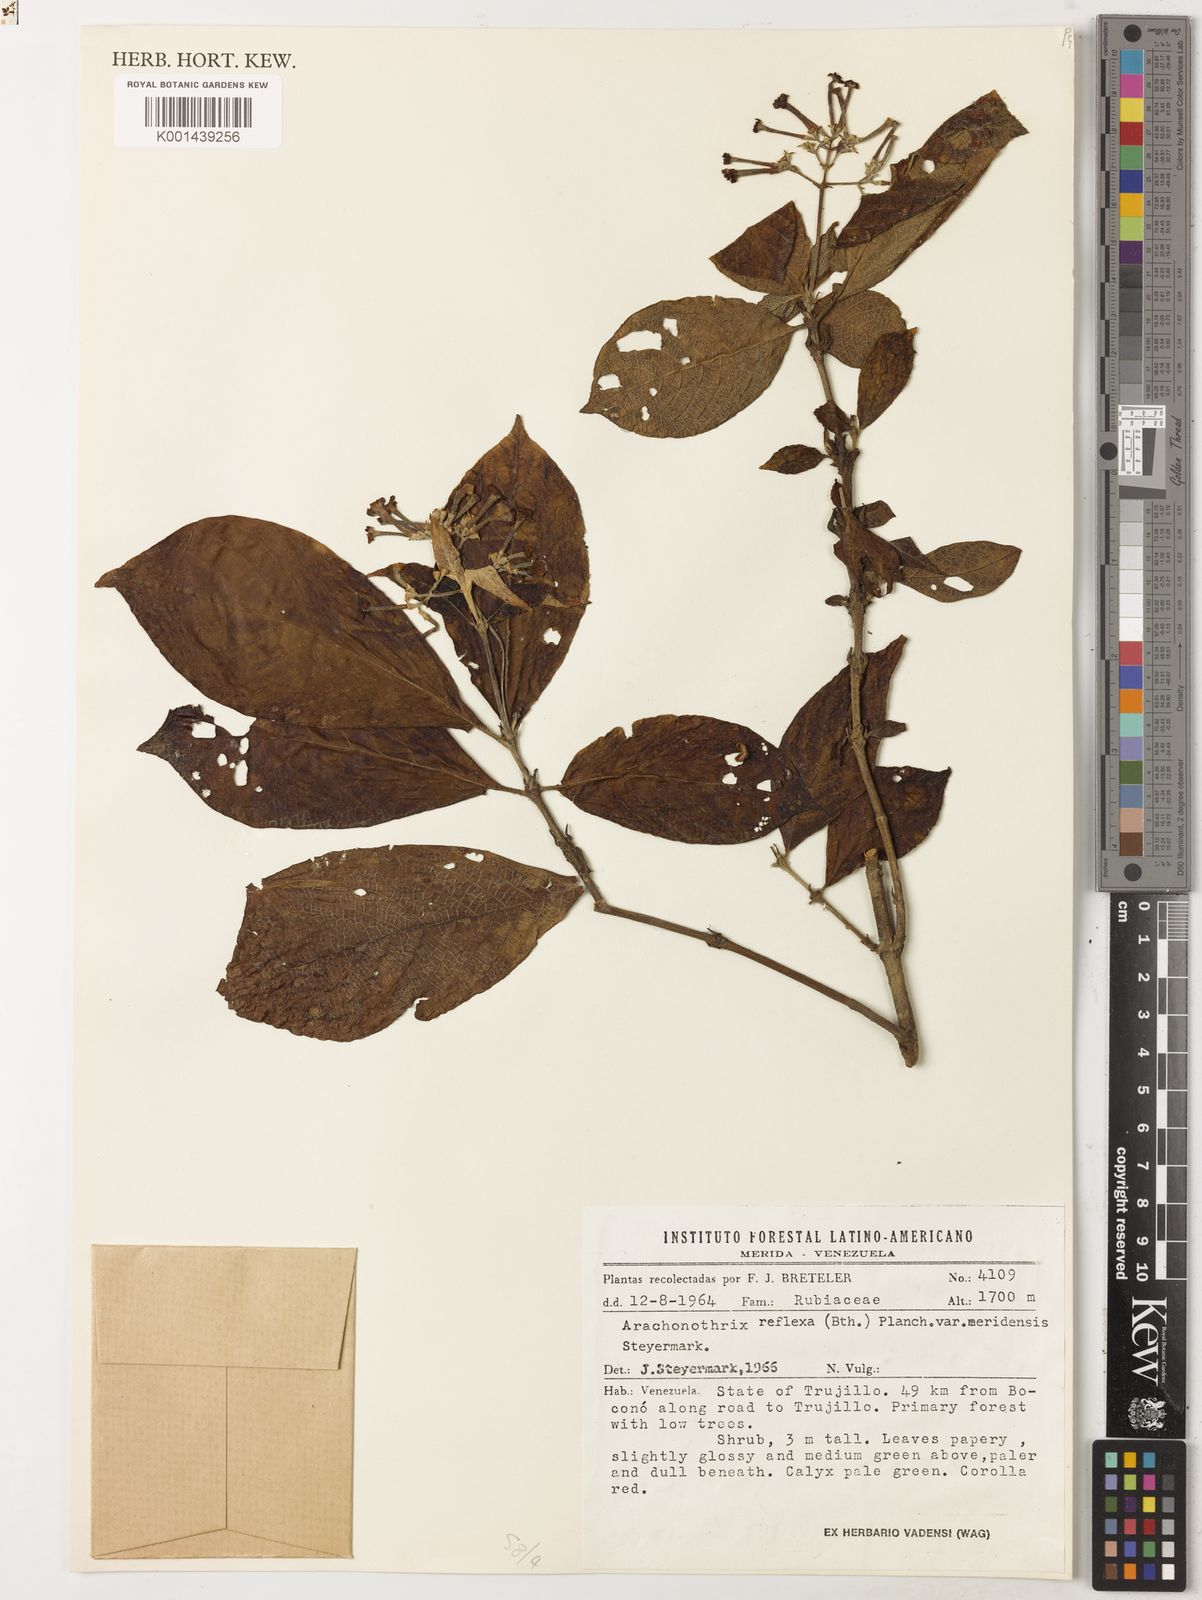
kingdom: Plantae
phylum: Tracheophyta
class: Magnoliopsida
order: Gentianales
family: Rubiaceae
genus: Arachnothryx
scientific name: Arachnothryx reflexa
